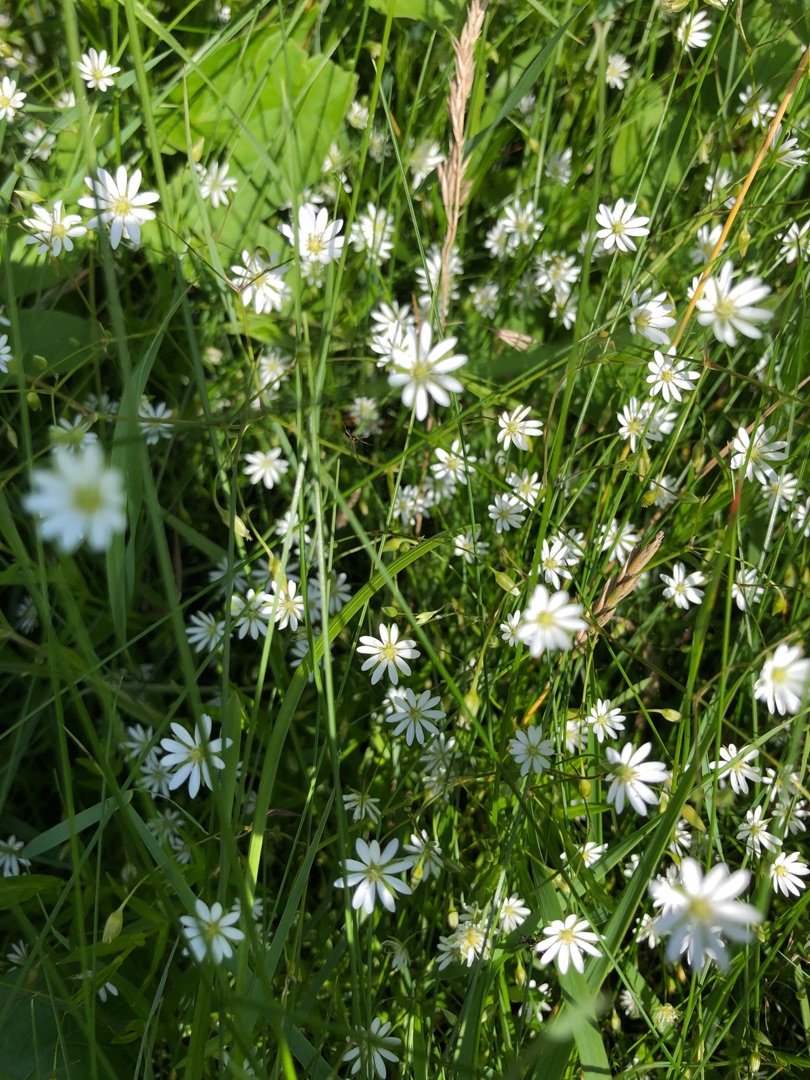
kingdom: Plantae
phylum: Tracheophyta
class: Magnoliopsida
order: Caryophyllales
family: Caryophyllaceae
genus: Stellaria
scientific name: Stellaria graminea
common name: Græsbladet fladstjerne
